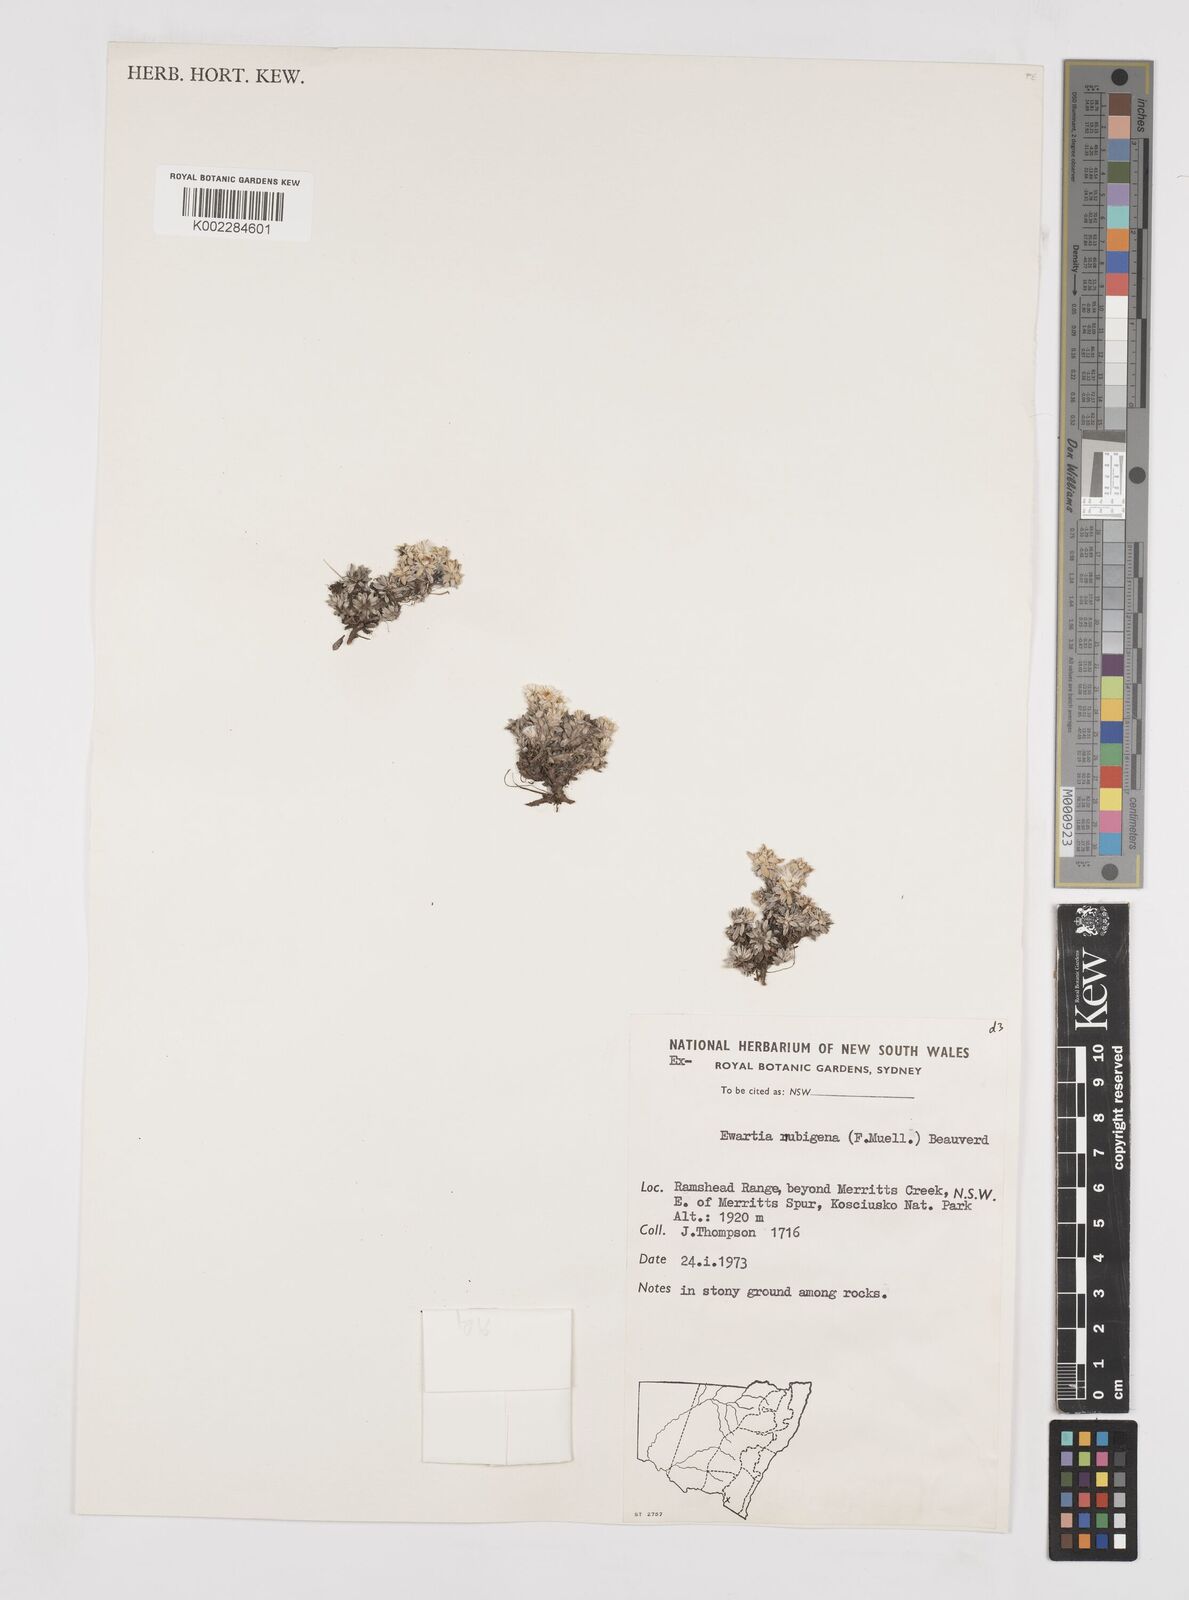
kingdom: Plantae
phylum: Tracheophyta
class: Magnoliopsida
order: Asterales
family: Asteraceae
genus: Ewartia
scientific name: Ewartia nubigena
